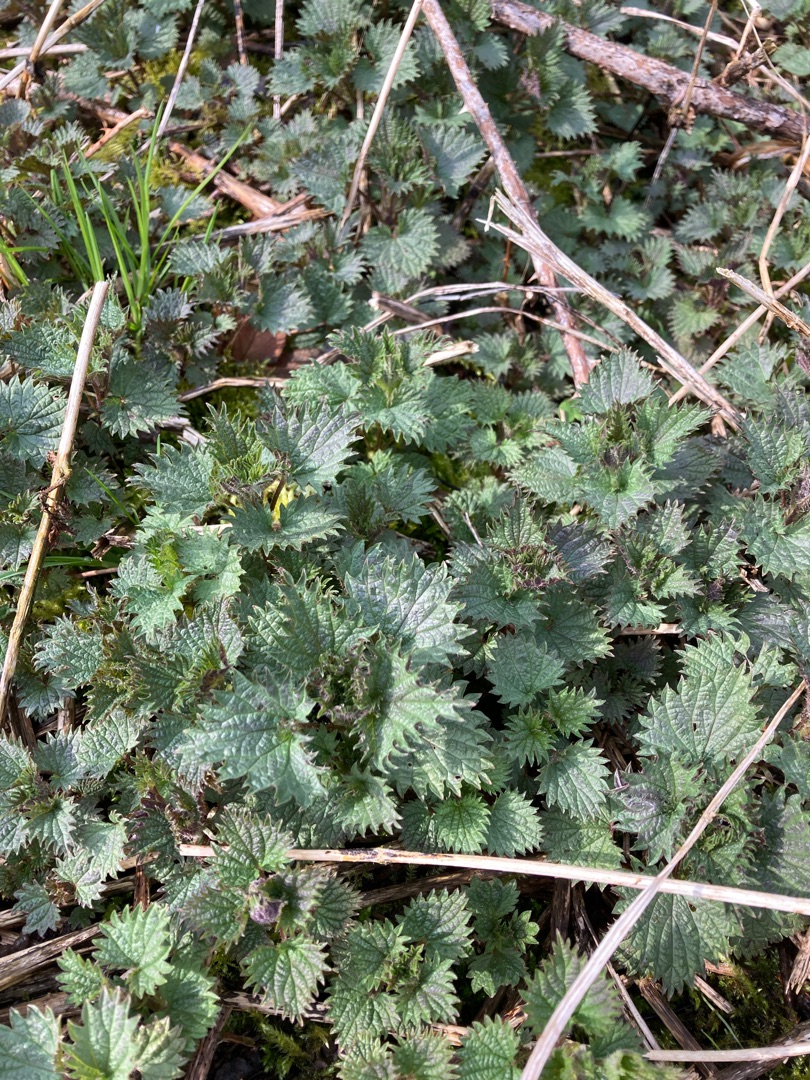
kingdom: Plantae
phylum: Tracheophyta
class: Magnoliopsida
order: Rosales
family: Urticaceae
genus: Urtica
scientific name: Urtica dioica
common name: Stor nælde
